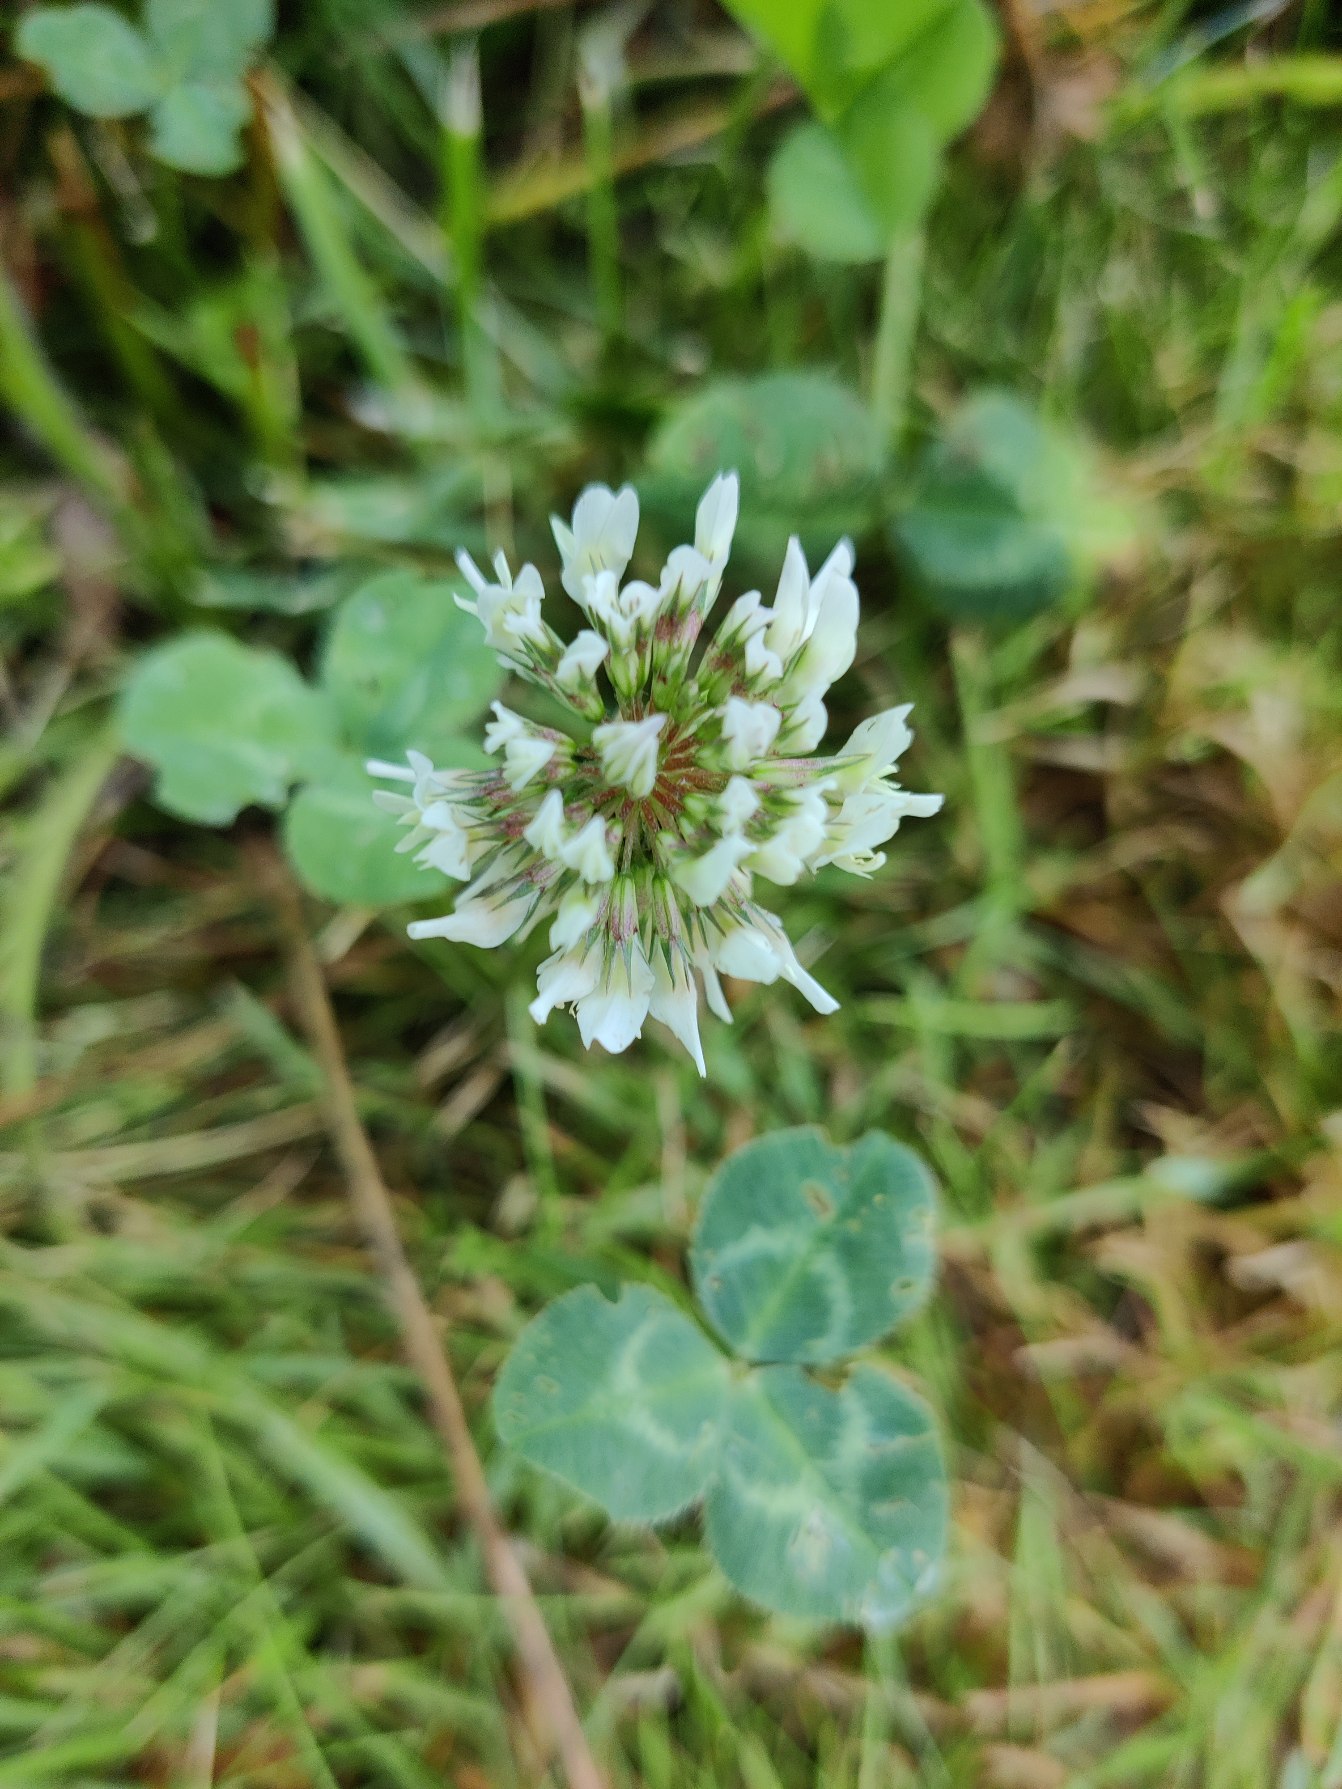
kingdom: Plantae
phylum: Tracheophyta
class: Magnoliopsida
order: Fabales
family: Fabaceae
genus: Trifolium
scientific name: Trifolium repens
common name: Hvid-kløver
